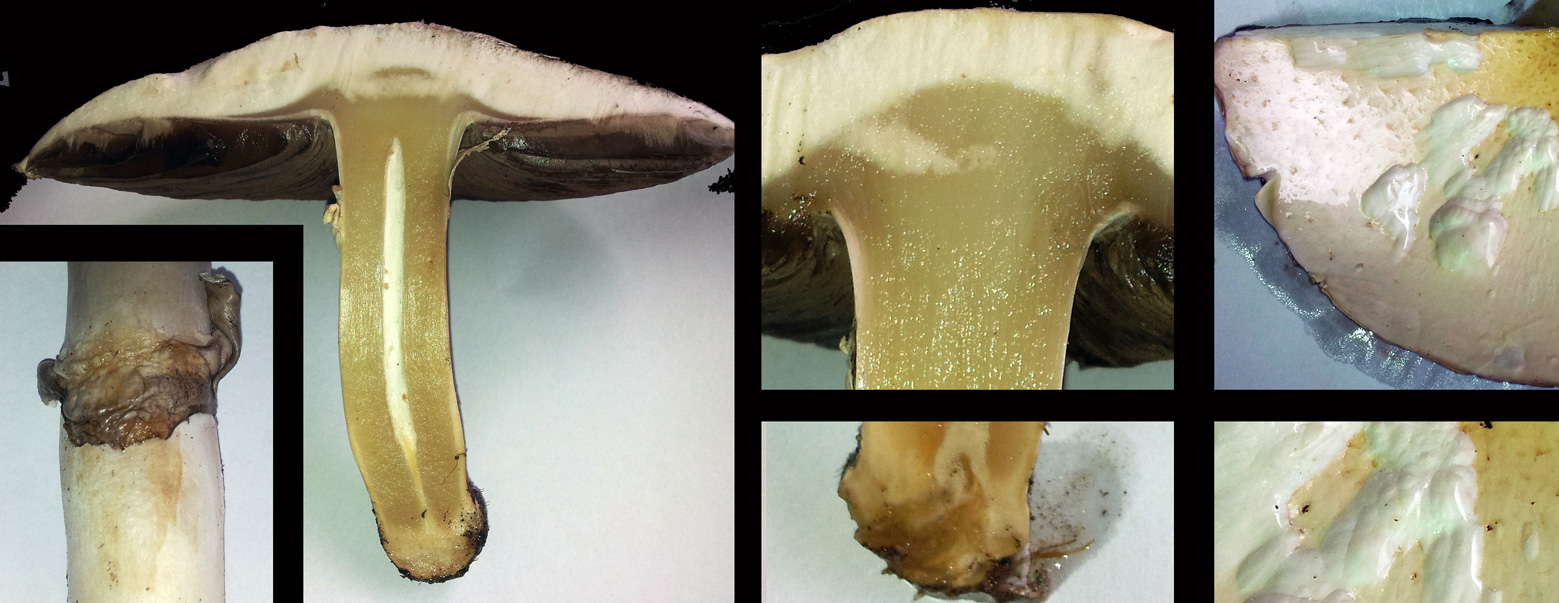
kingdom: Fungi
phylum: Basidiomycota
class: Agaricomycetes
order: Agaricales
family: Agaricaceae
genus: Agaricus
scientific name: Agaricus campestris
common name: mark-champignon
